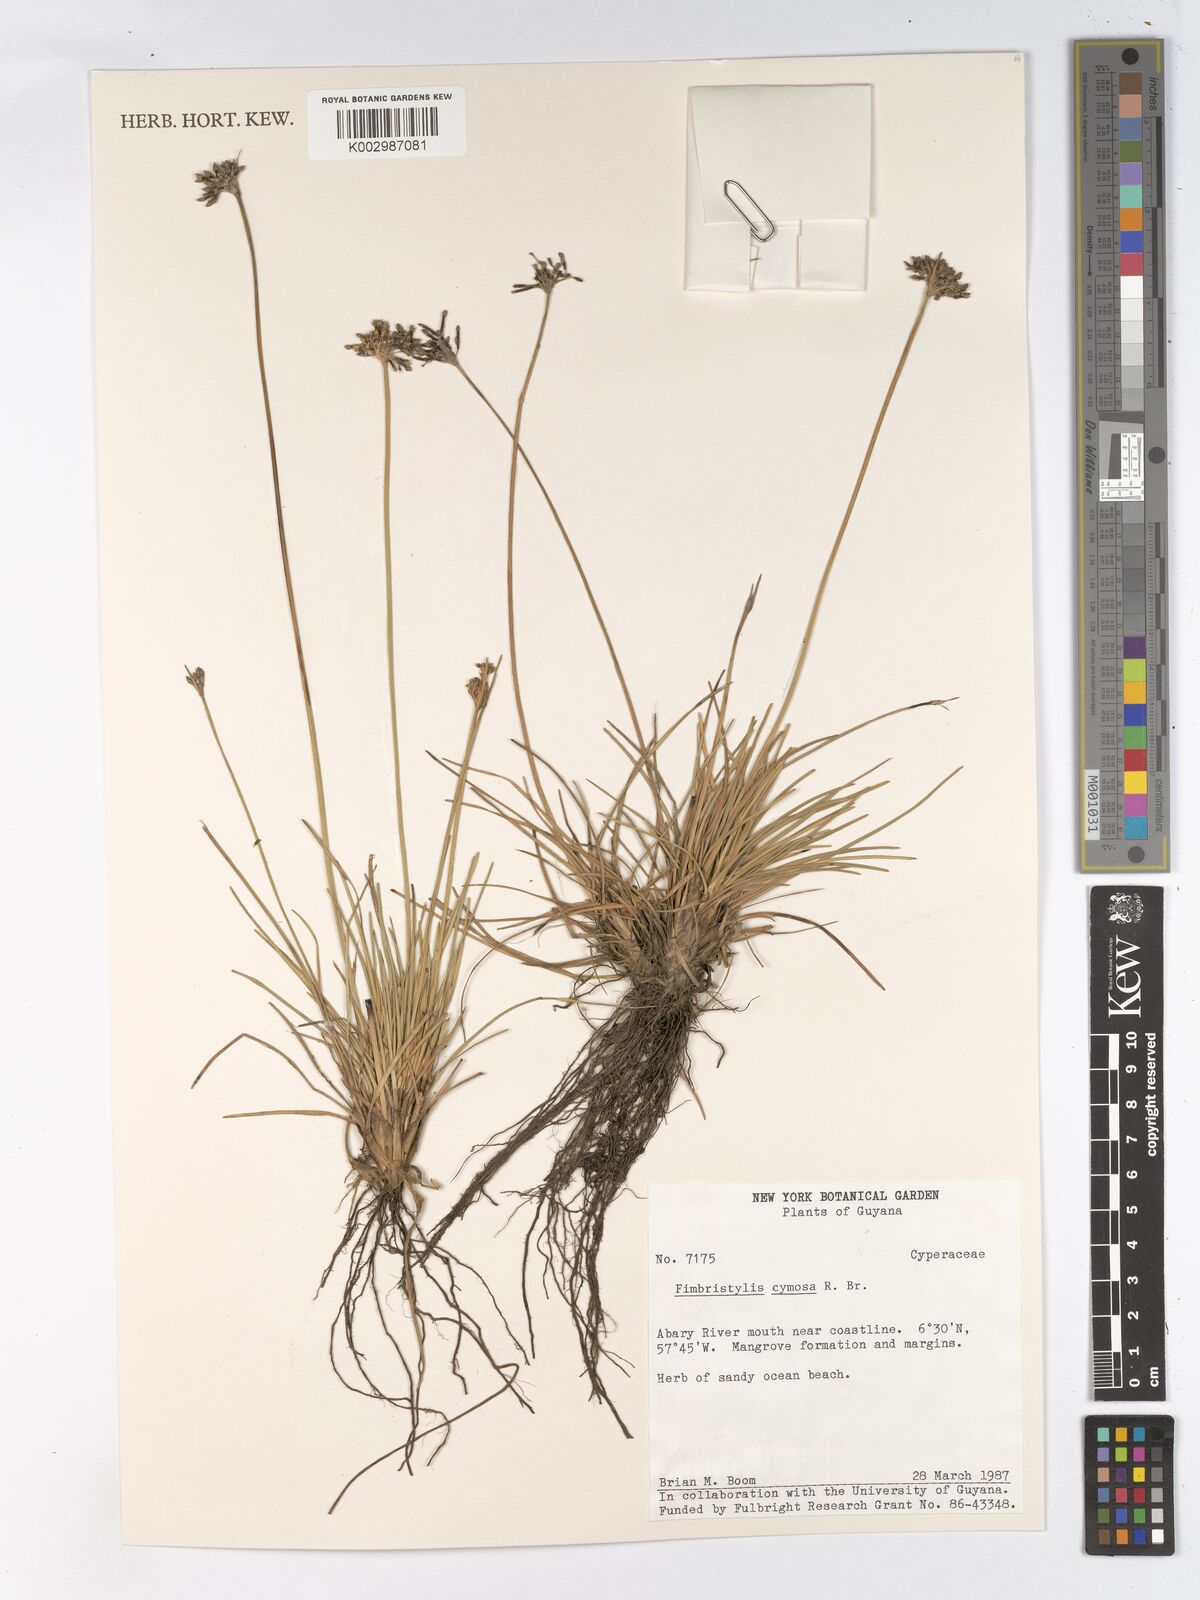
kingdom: Plantae
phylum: Tracheophyta
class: Liliopsida
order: Poales
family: Cyperaceae
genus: Fimbristylis
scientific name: Fimbristylis cymosa
